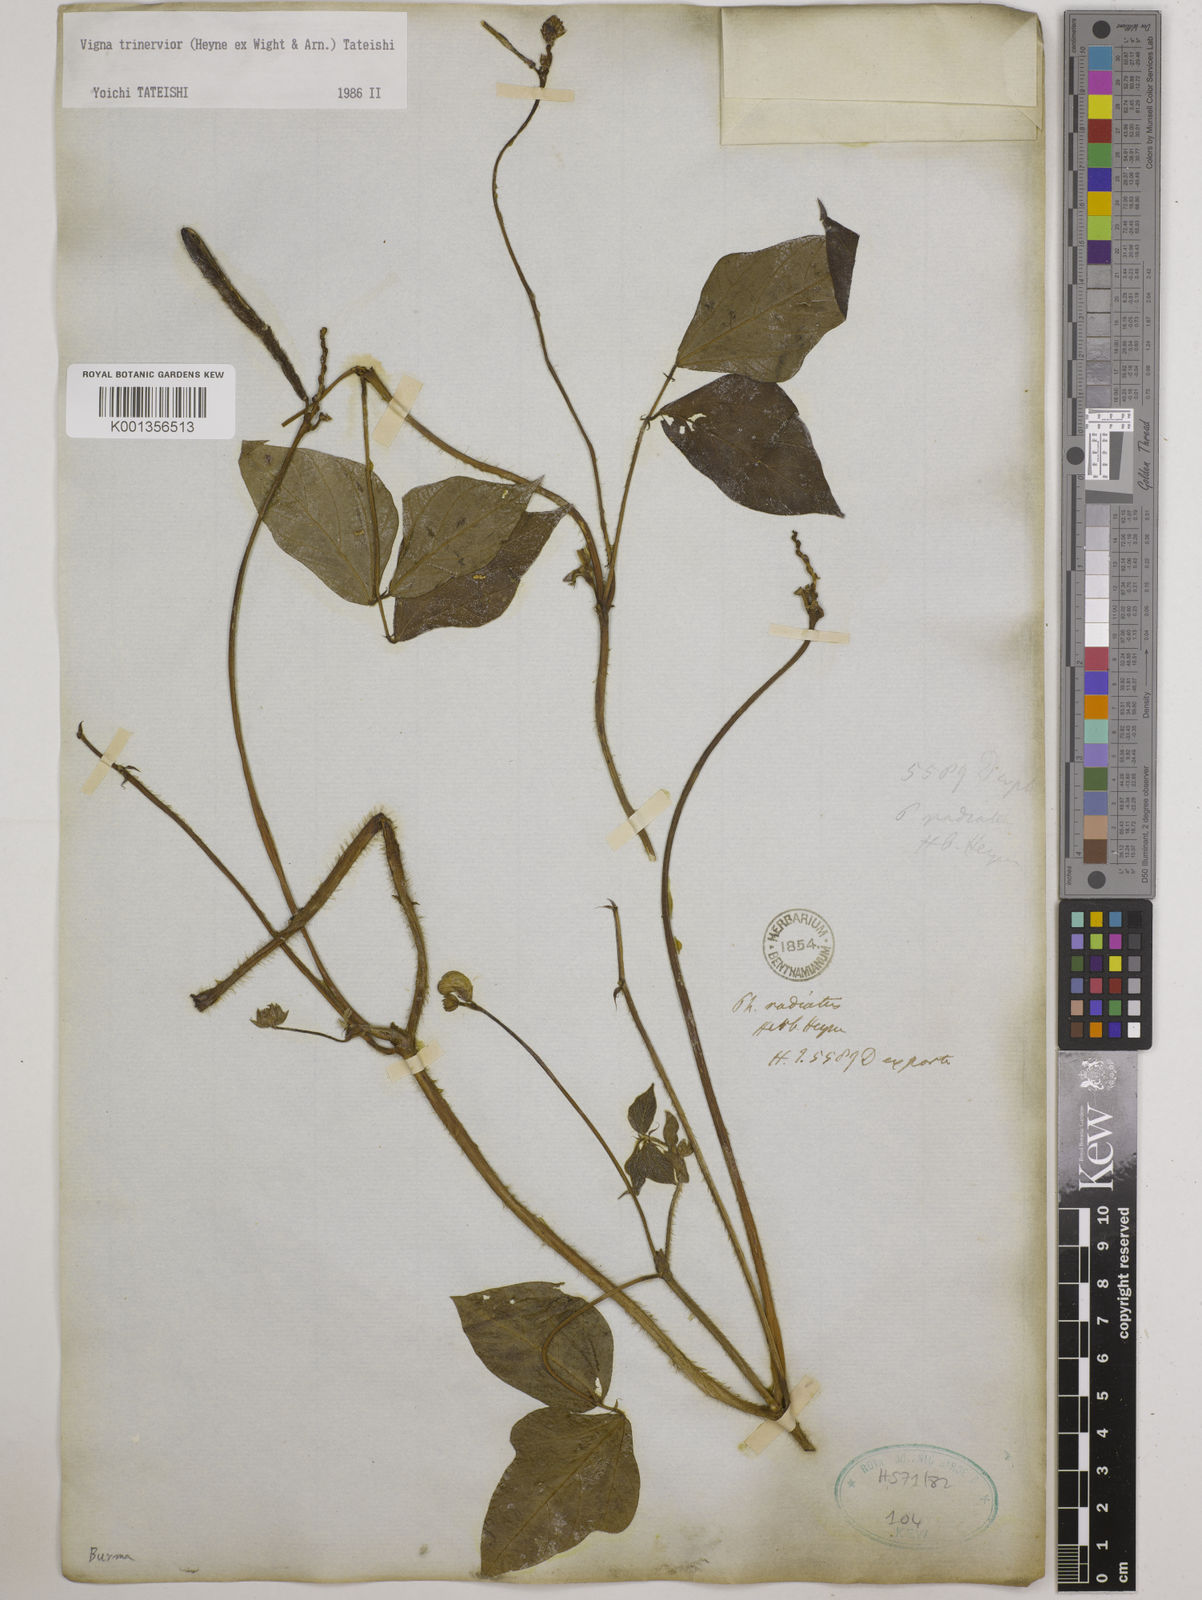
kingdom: Plantae
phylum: Tracheophyta
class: Magnoliopsida
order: Fabales
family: Fabaceae
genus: Vigna
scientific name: Vigna radiata
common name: Mung-bean
